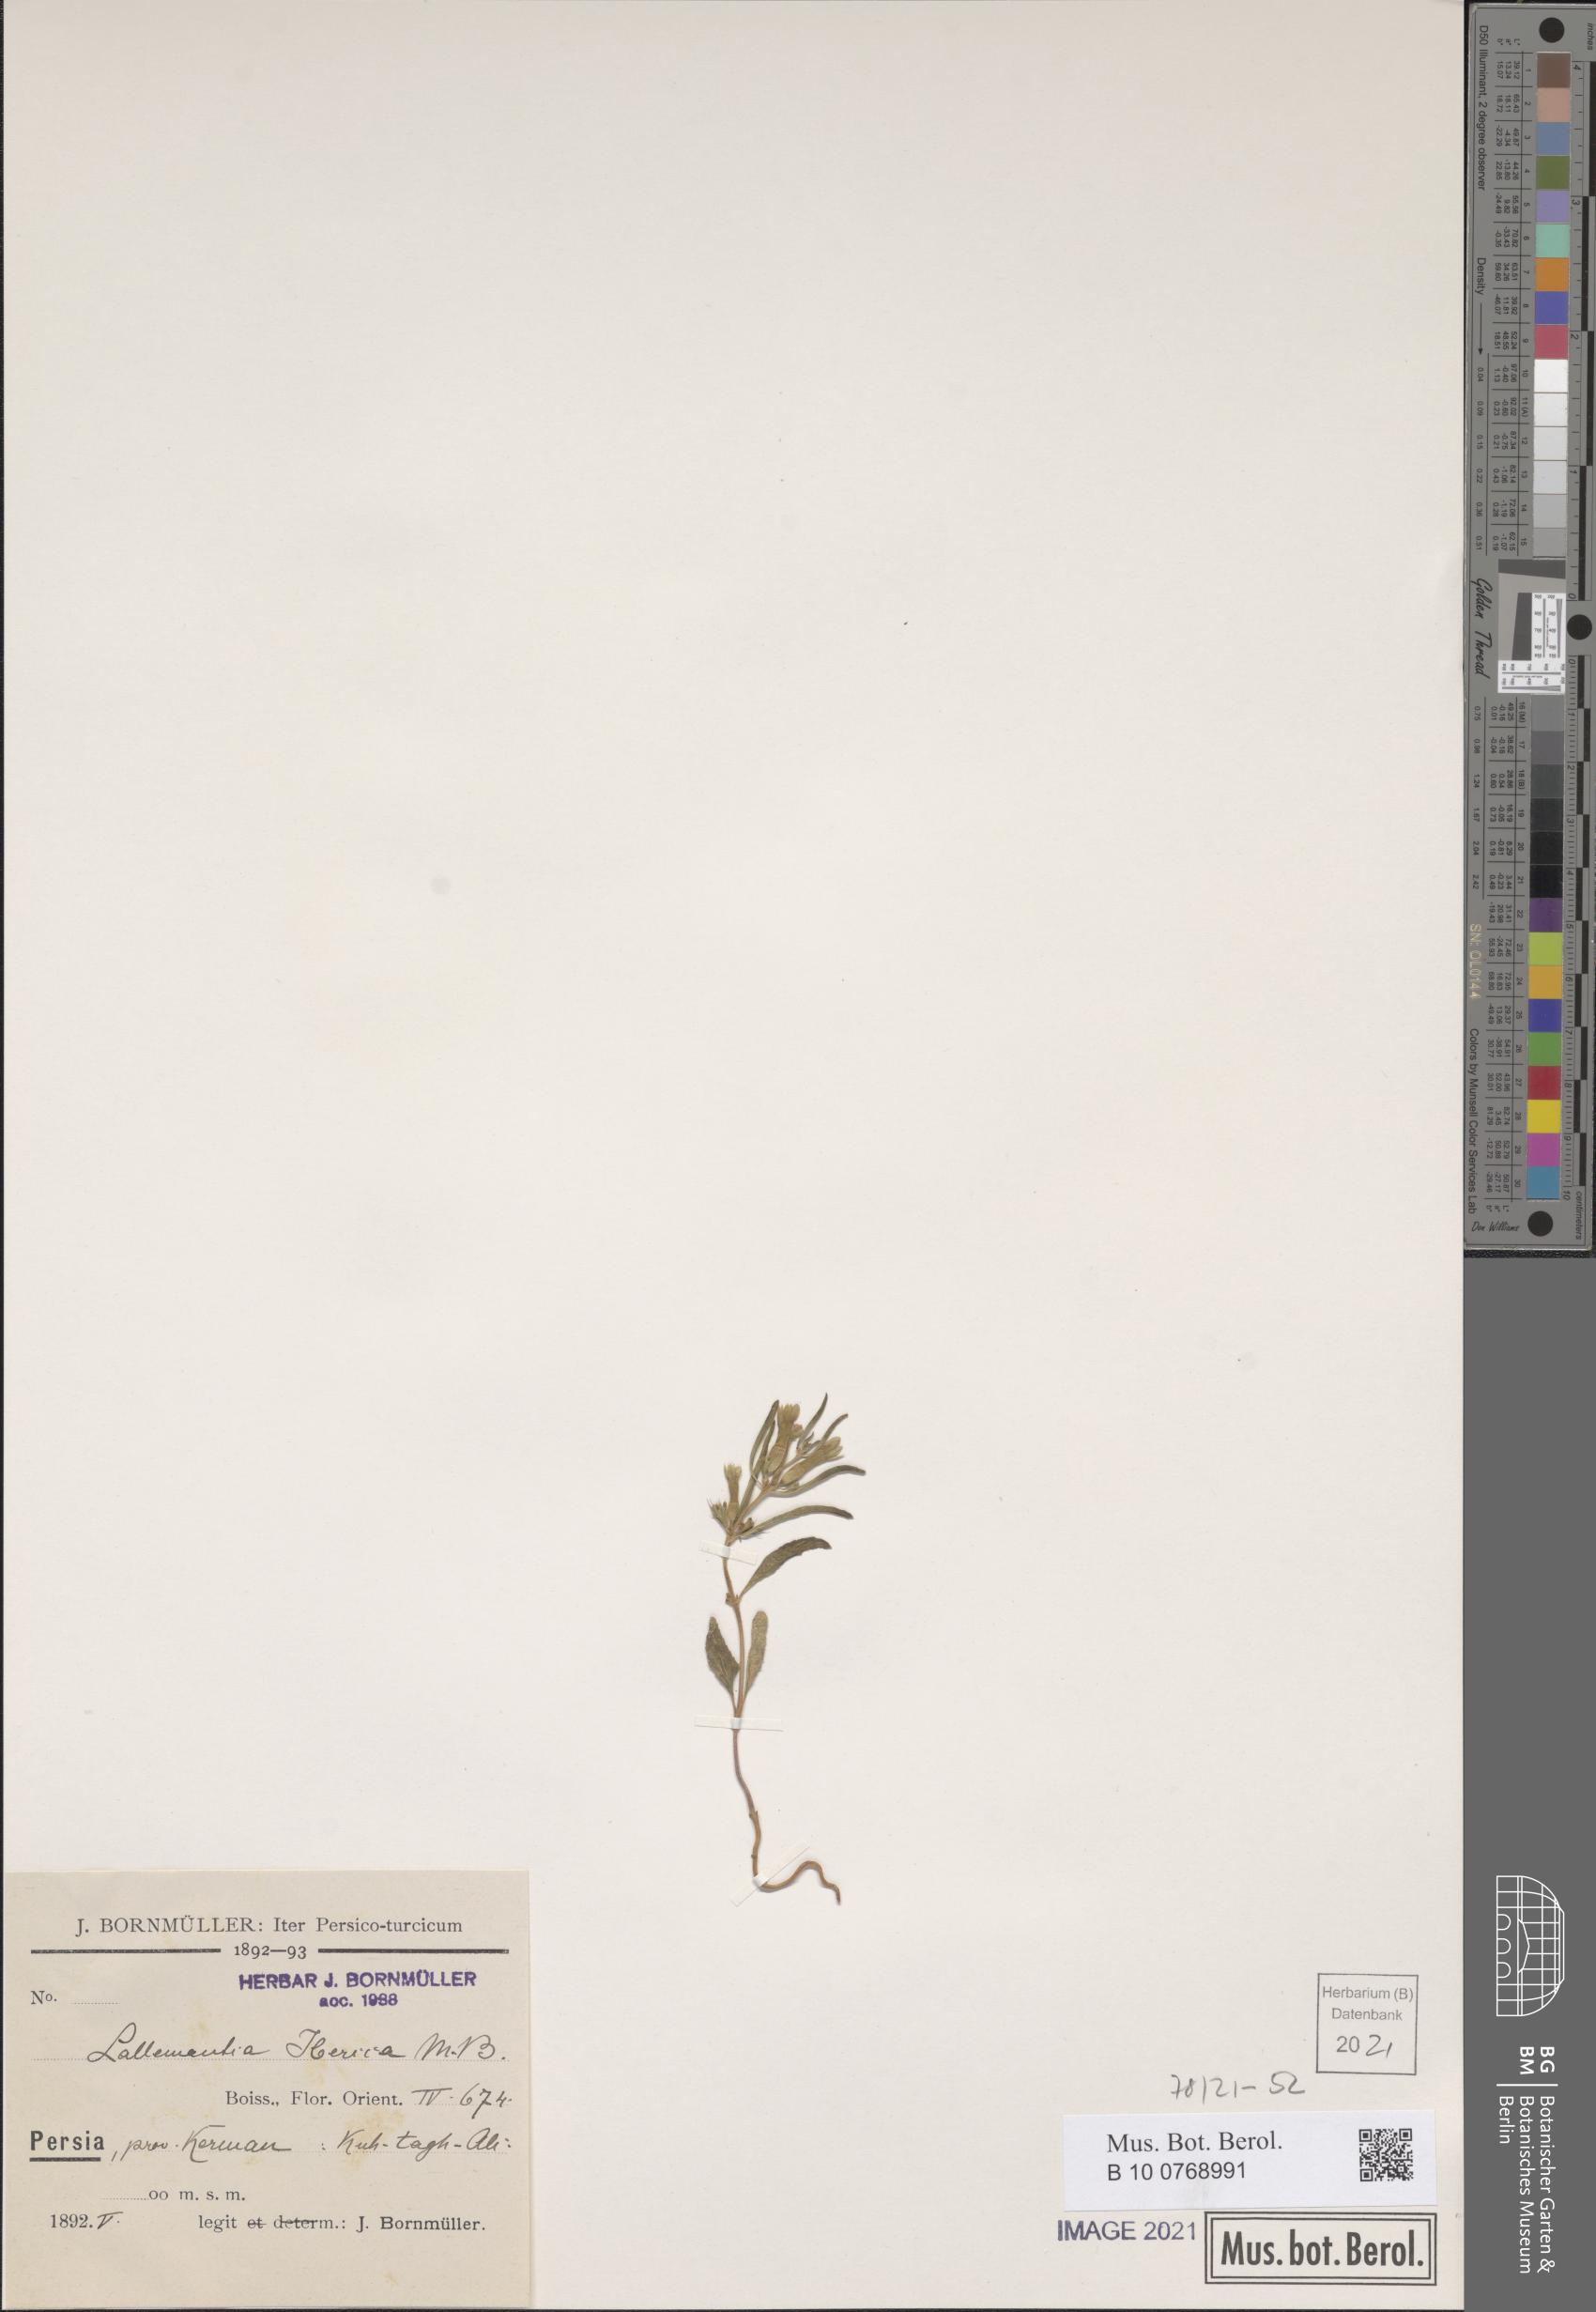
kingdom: Plantae
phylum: Tracheophyta
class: Magnoliopsida
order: Lamiales
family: Lamiaceae
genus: Lallemantia
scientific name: Lallemantia iberica
